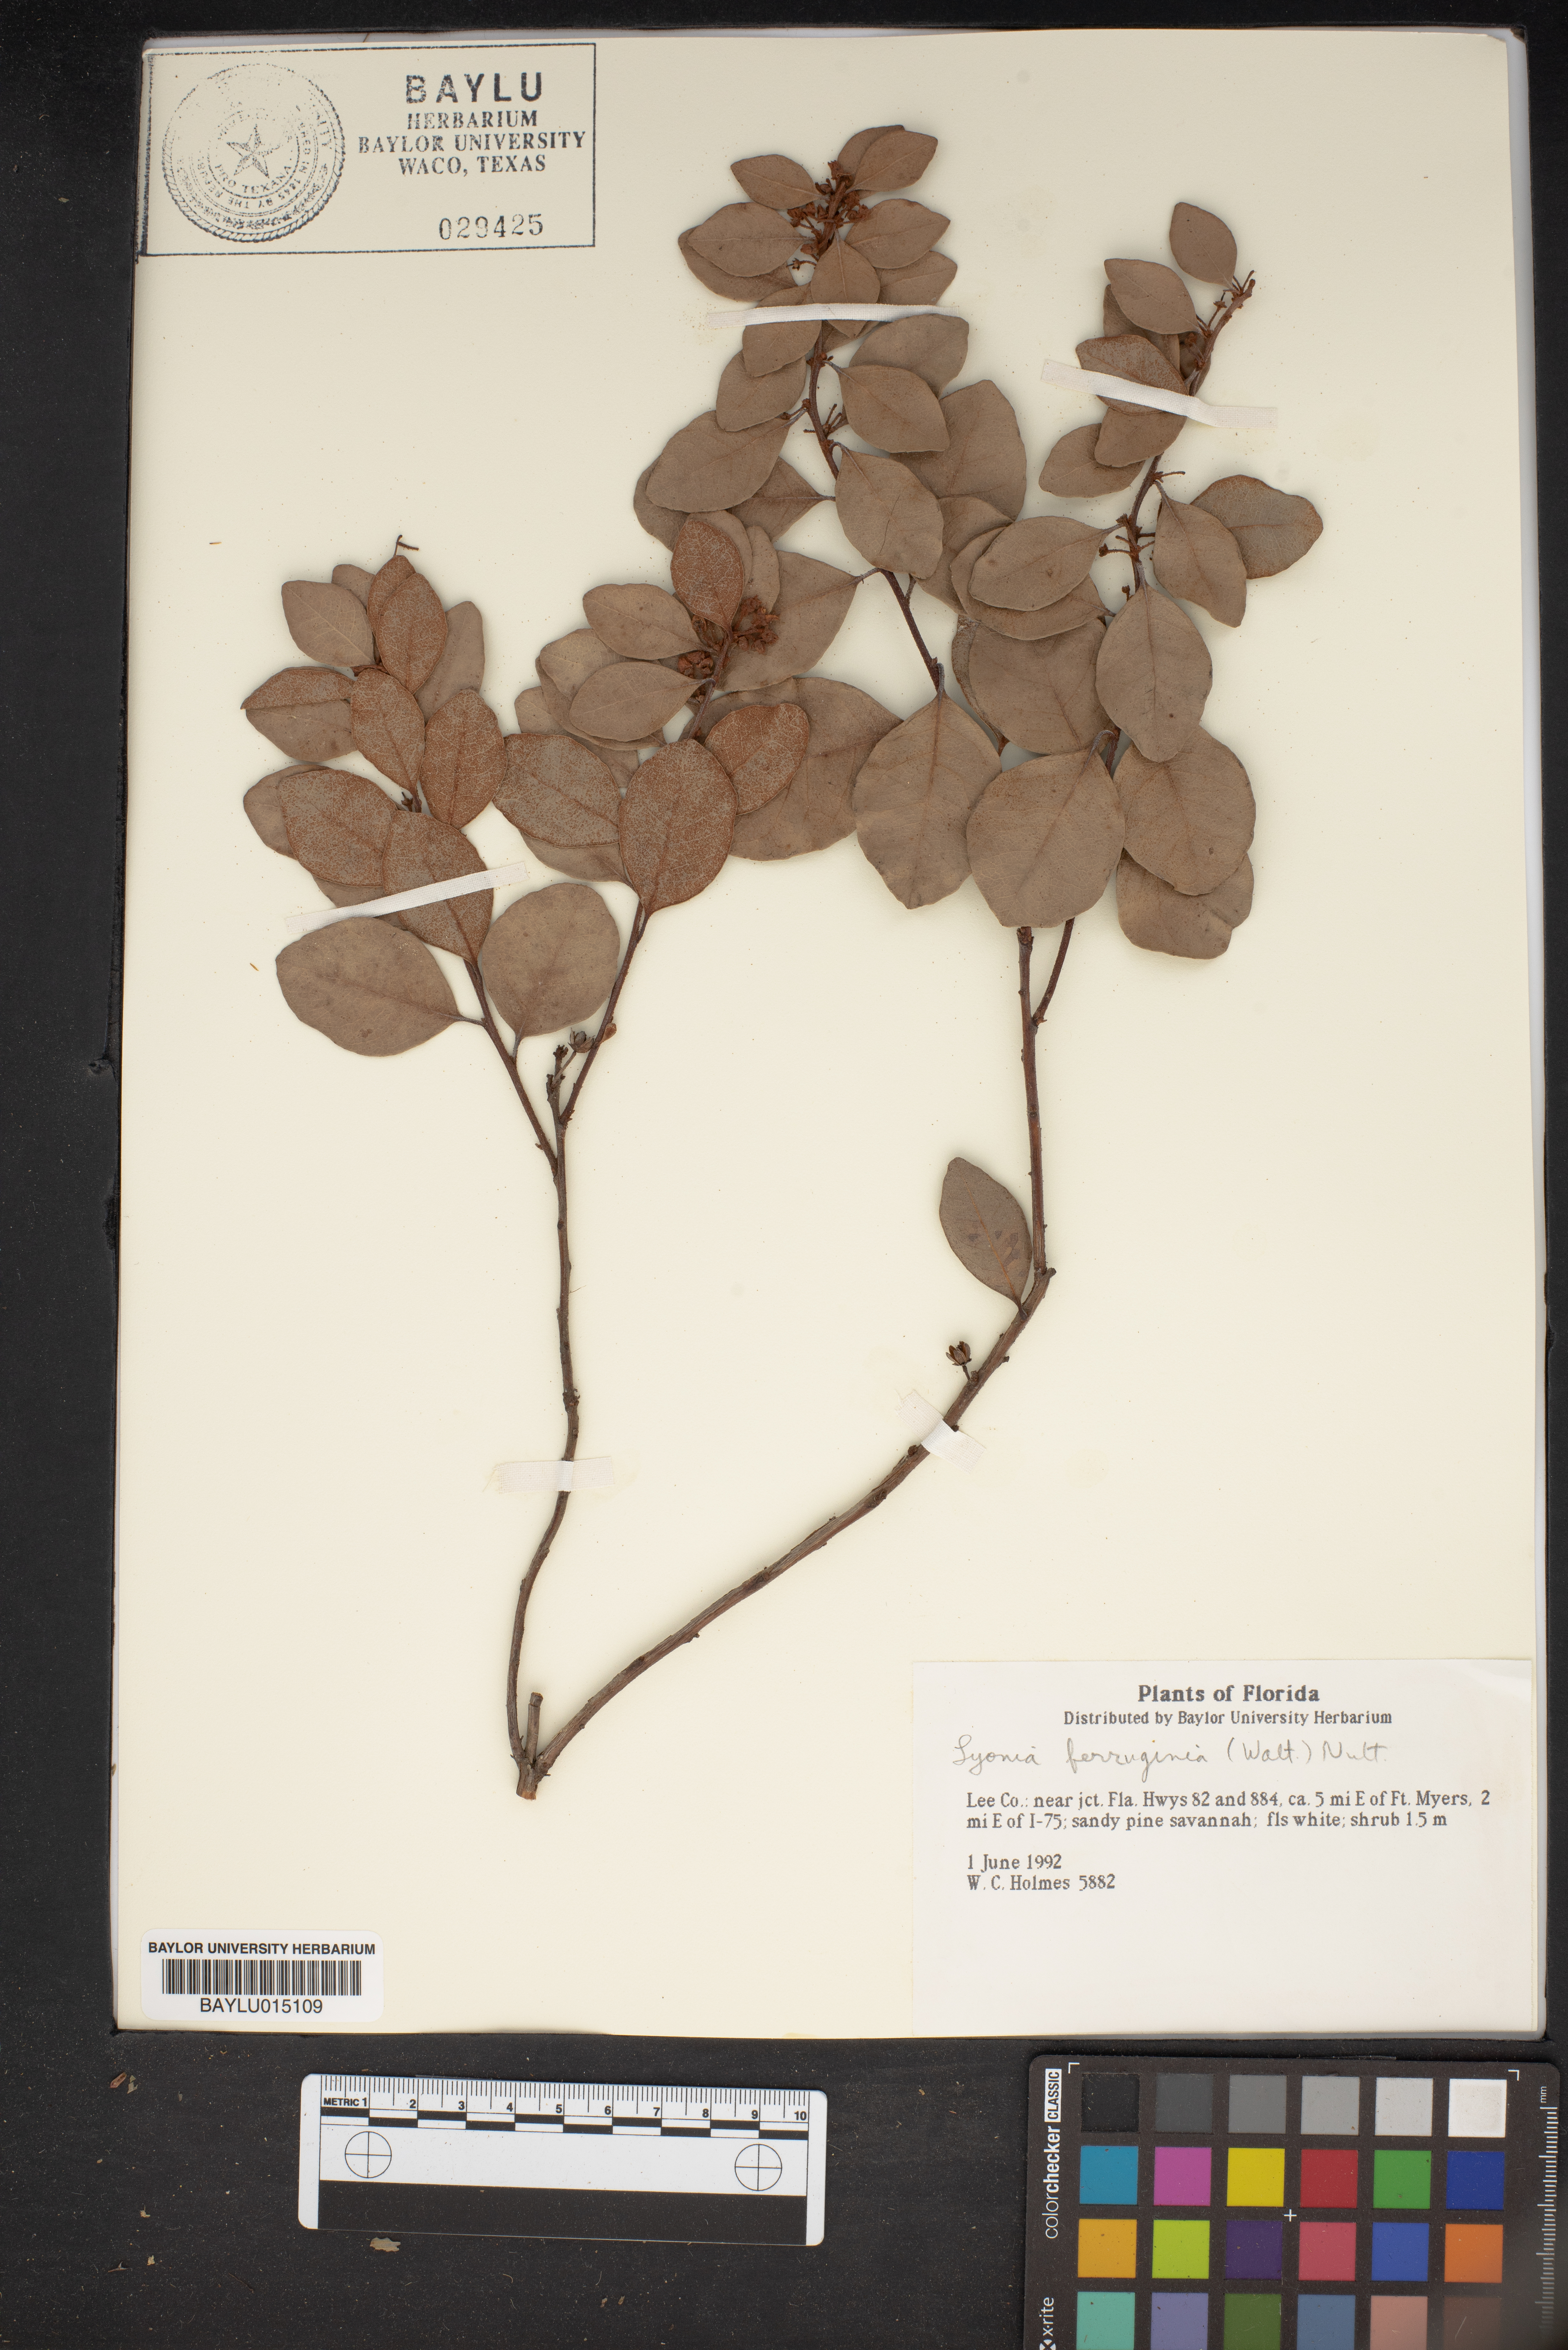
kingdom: Plantae
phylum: Tracheophyta
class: Magnoliopsida
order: Ericales
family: Ericaceae
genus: Lyonia
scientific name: Lyonia ferruginea
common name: Rusty lyonia
